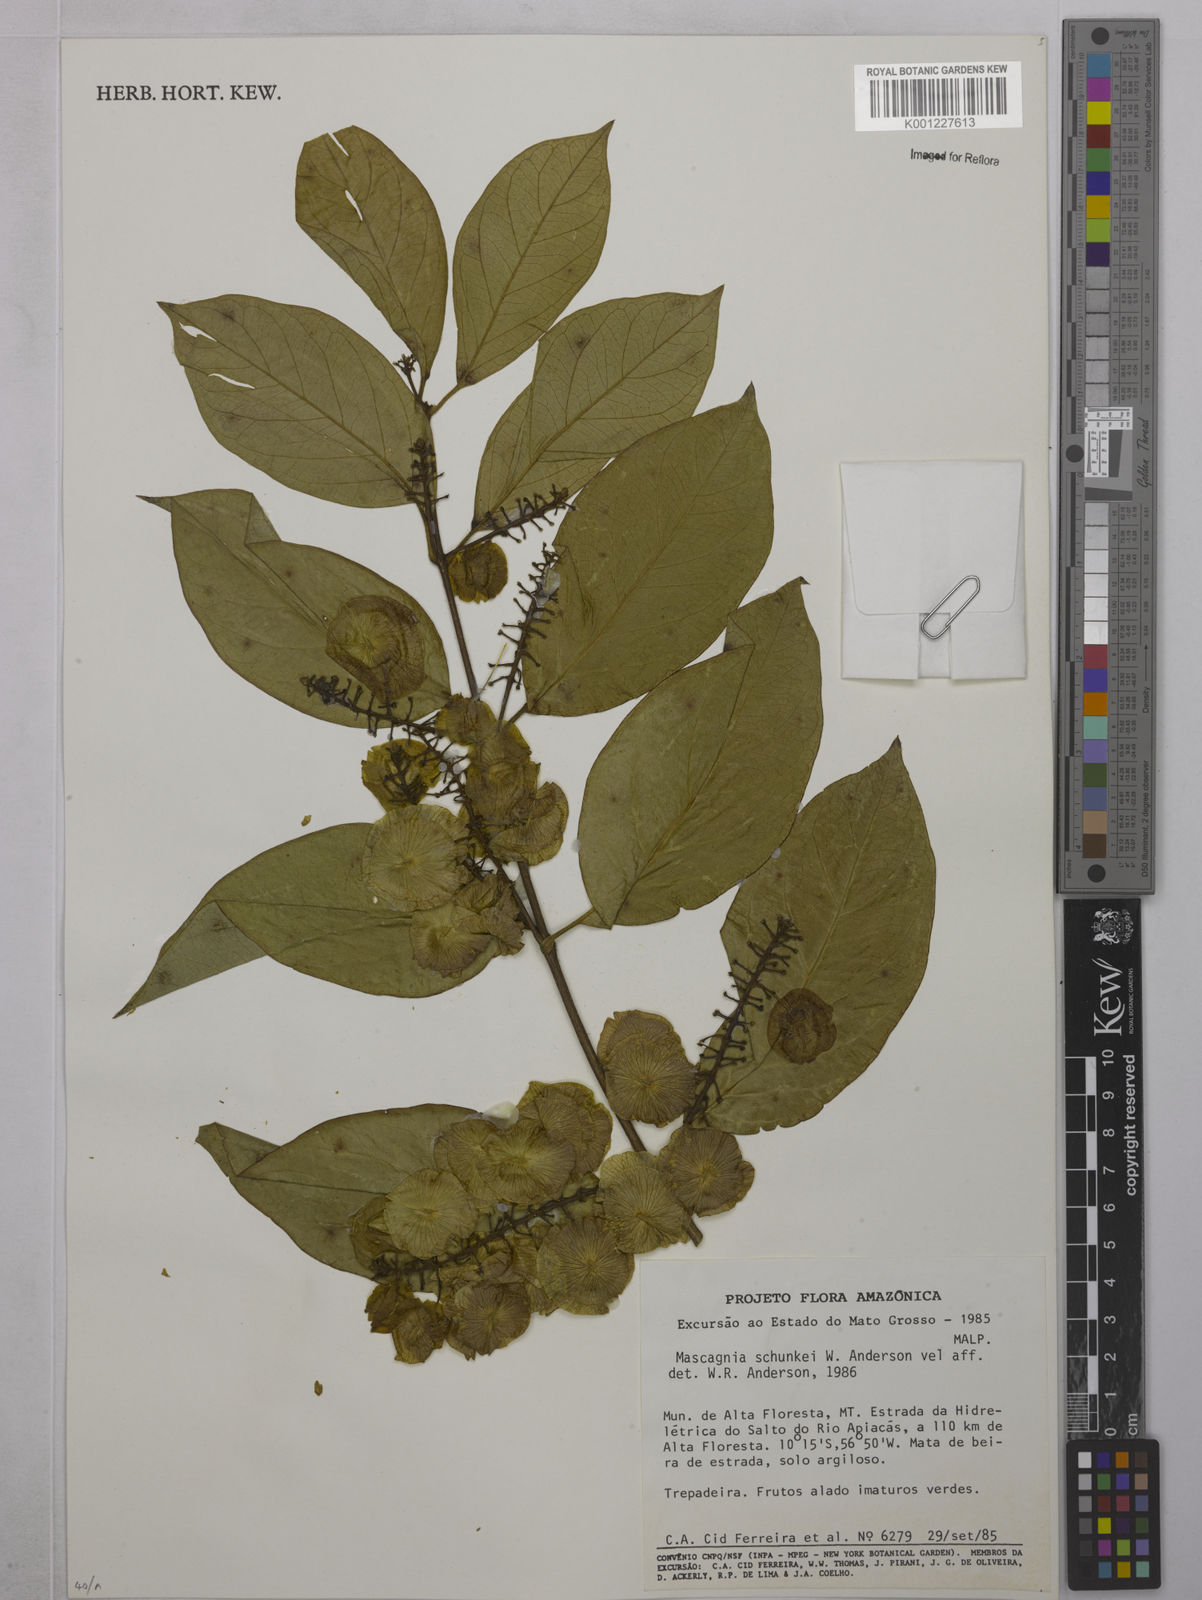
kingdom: Plantae
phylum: Tracheophyta
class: Magnoliopsida
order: Malpighiales
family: Malpighiaceae
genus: Mascagnia
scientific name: Mascagnia schunkei
